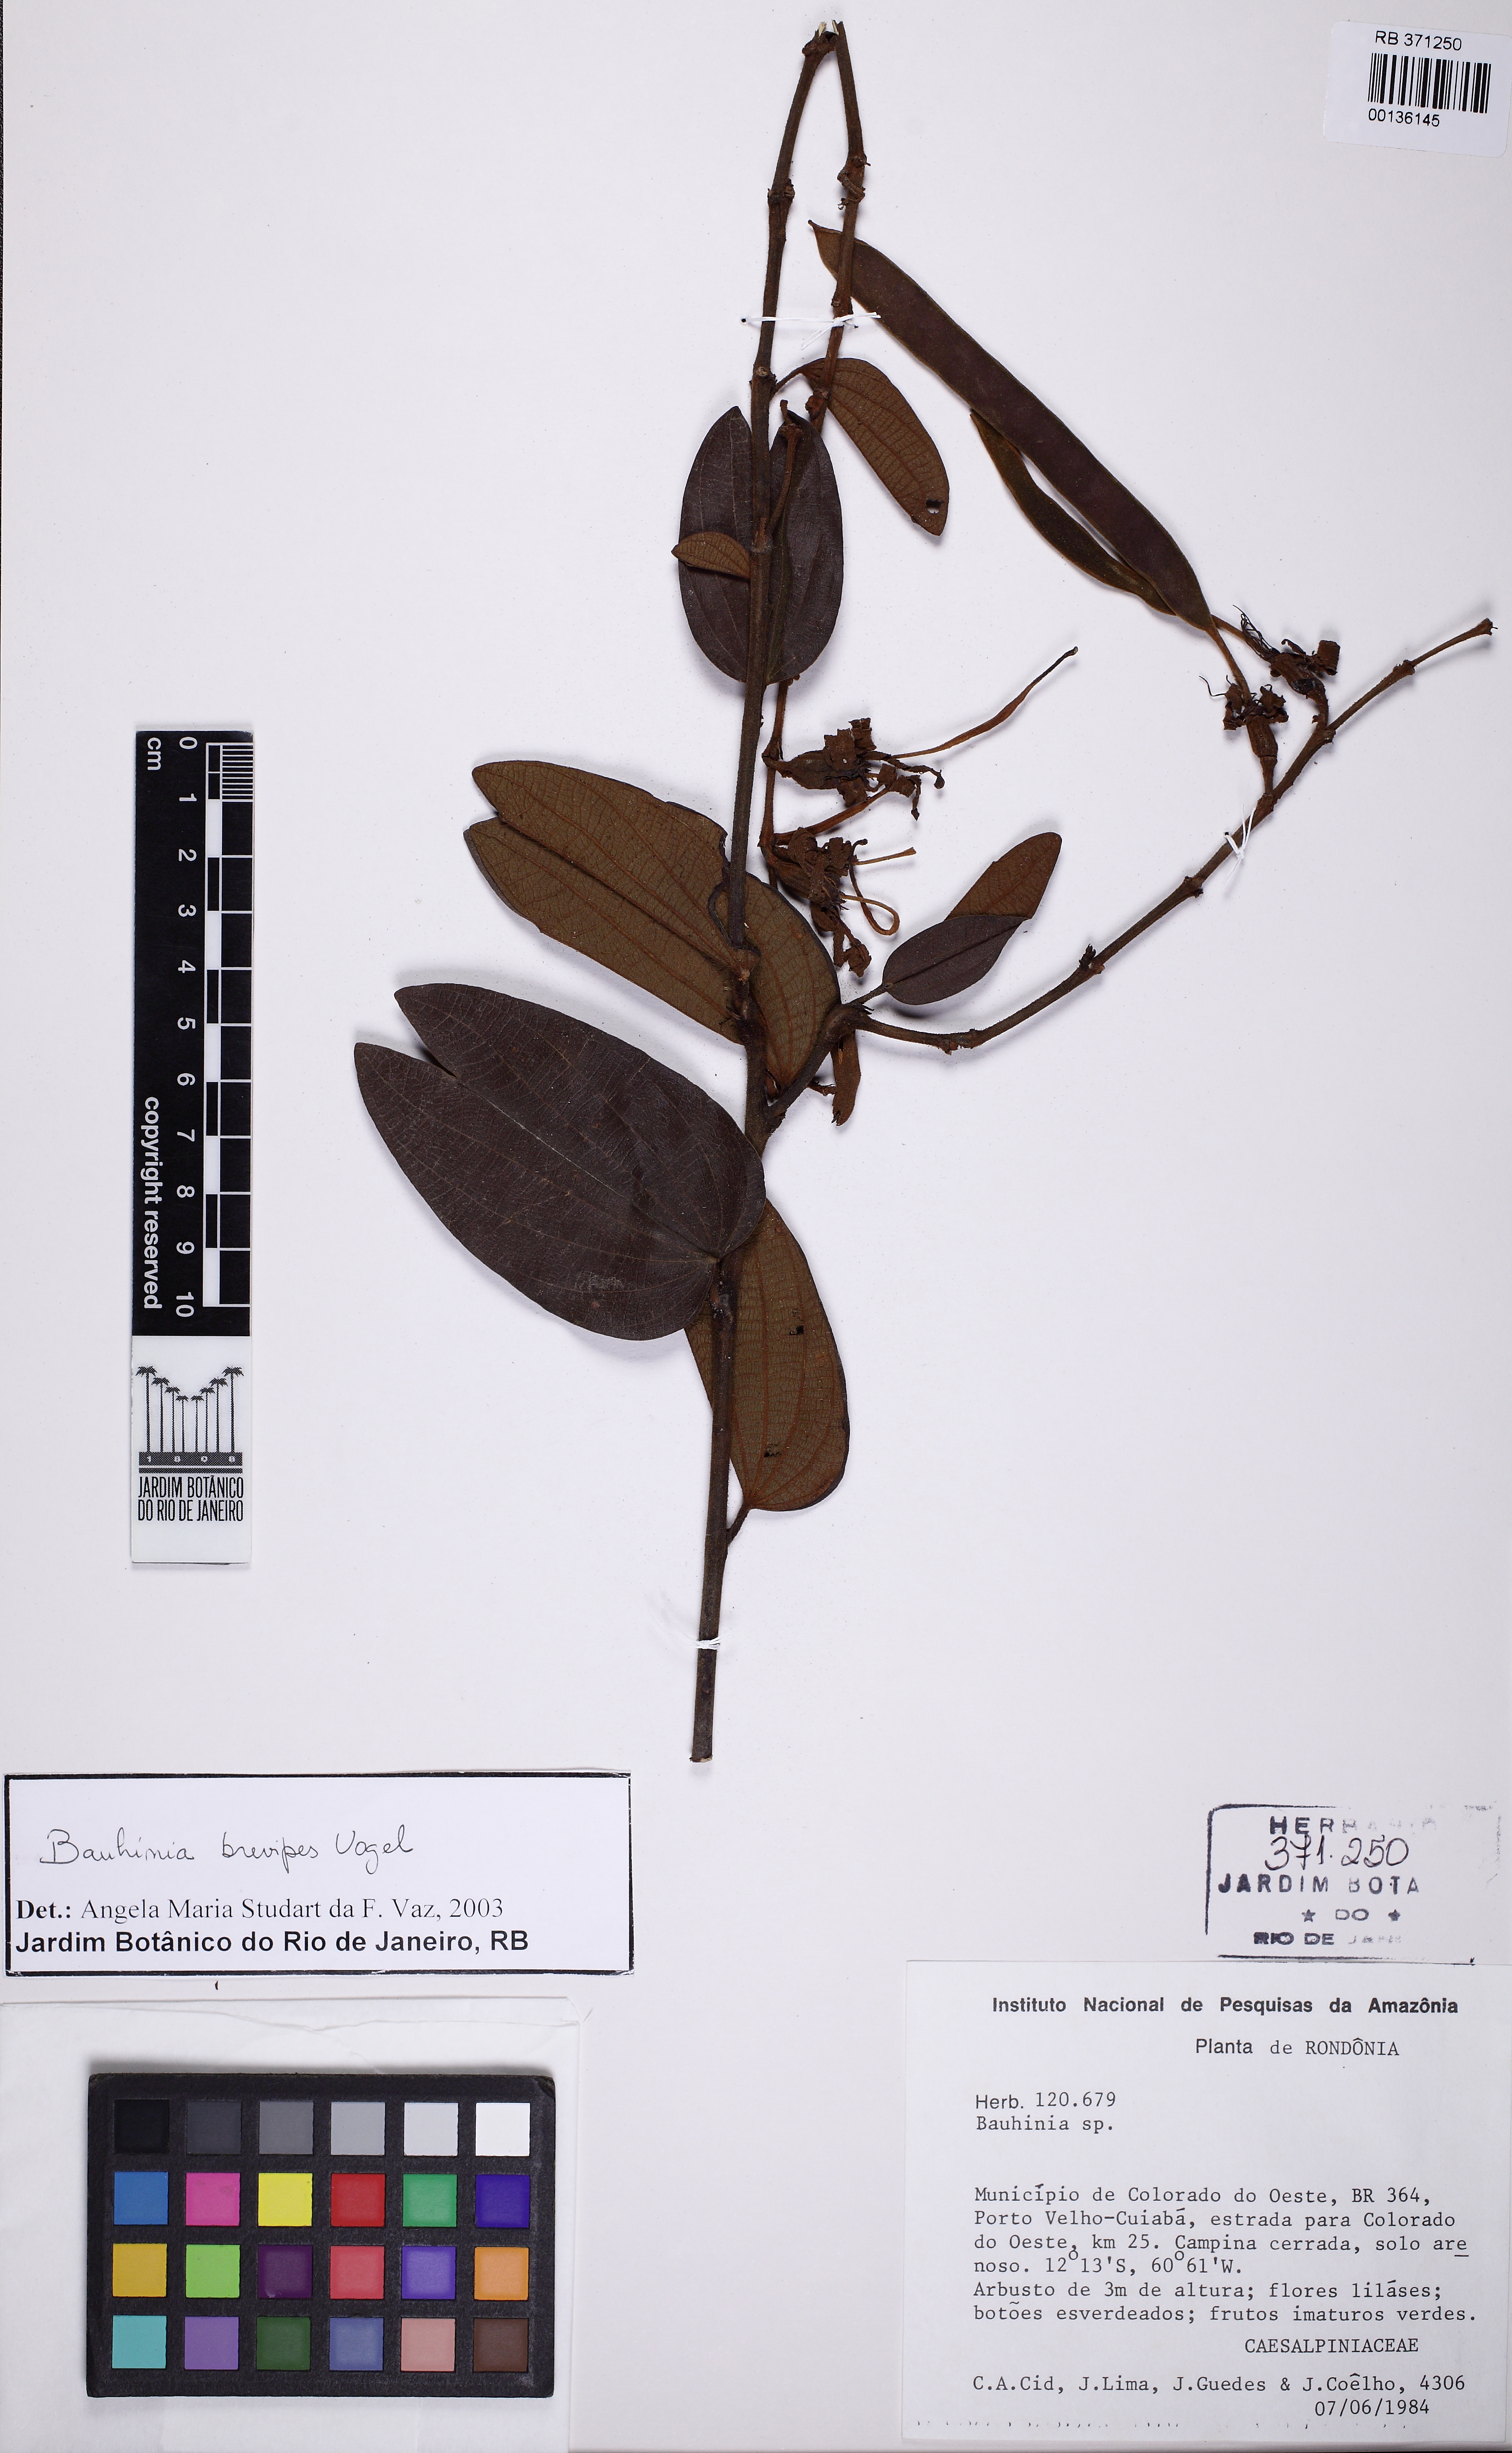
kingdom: Plantae
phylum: Tracheophyta
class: Magnoliopsida
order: Fabales
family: Fabaceae
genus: Bauhinia
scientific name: Bauhinia brevipes
